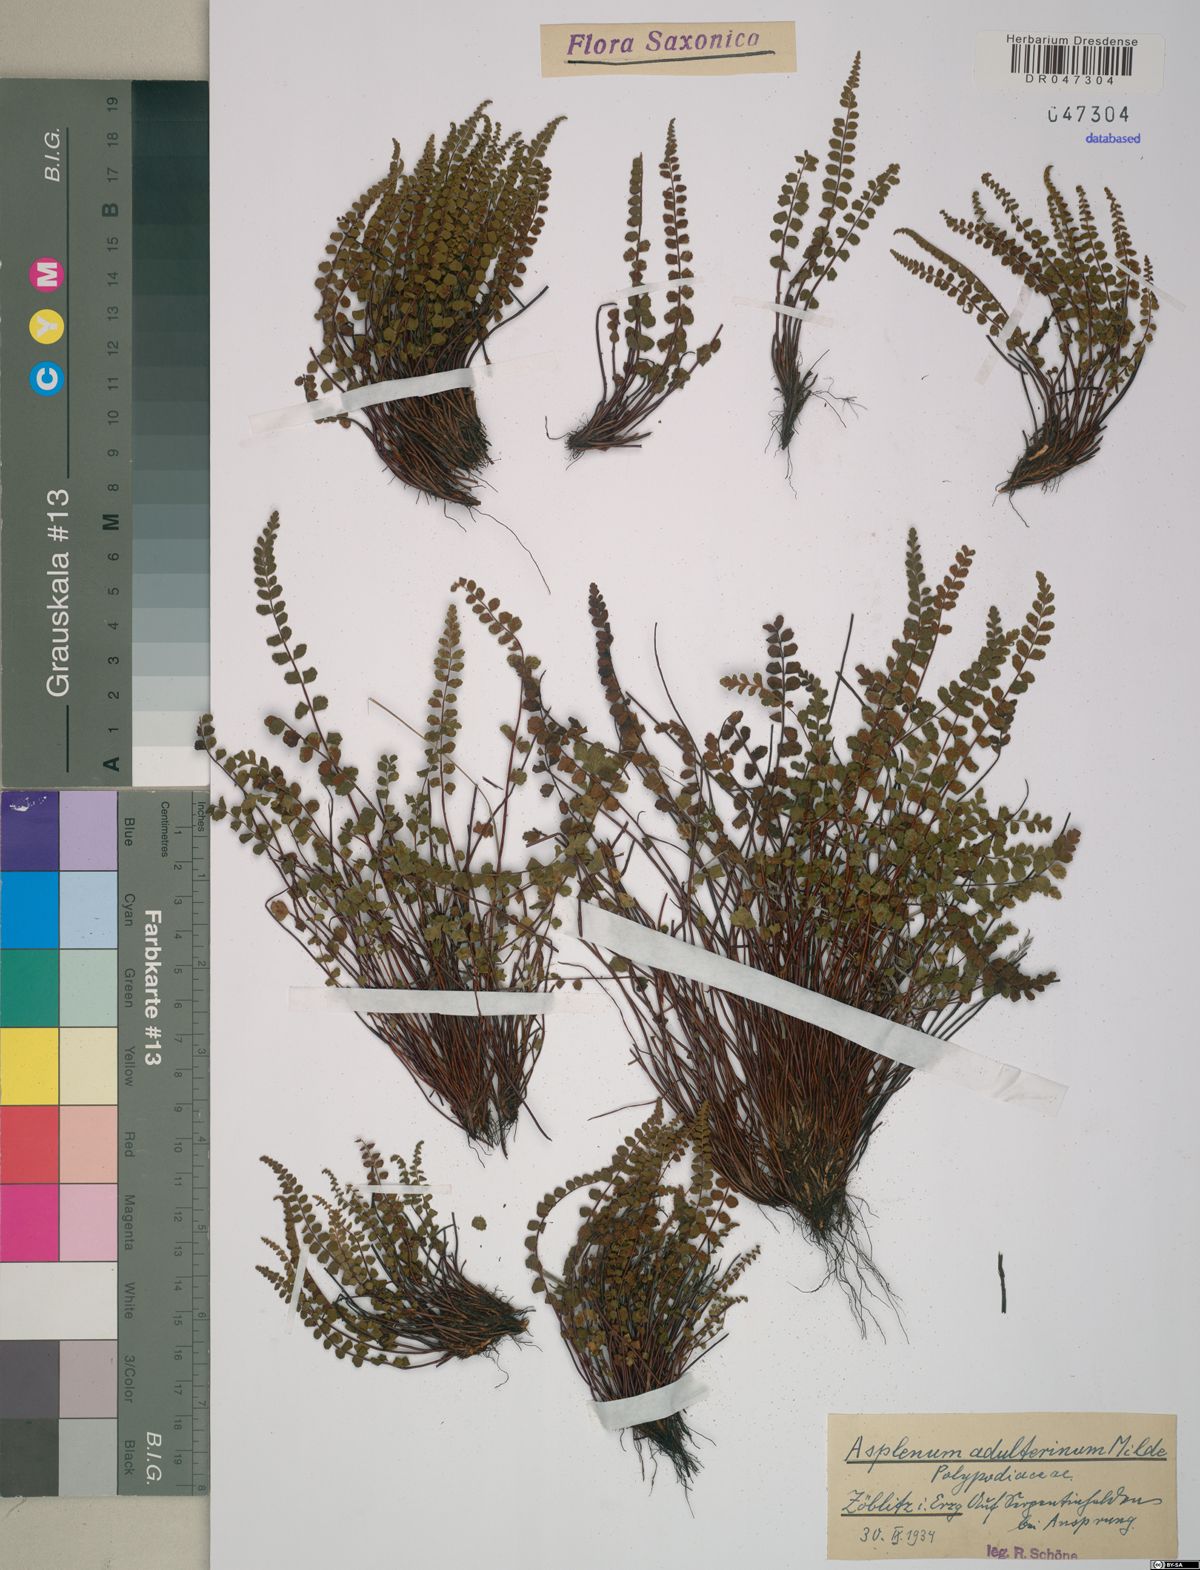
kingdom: Plantae
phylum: Tracheophyta
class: Polypodiopsida
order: Polypodiales
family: Aspleniaceae
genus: Asplenium
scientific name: Asplenium adulterinum
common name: Adulterated spleenwort
